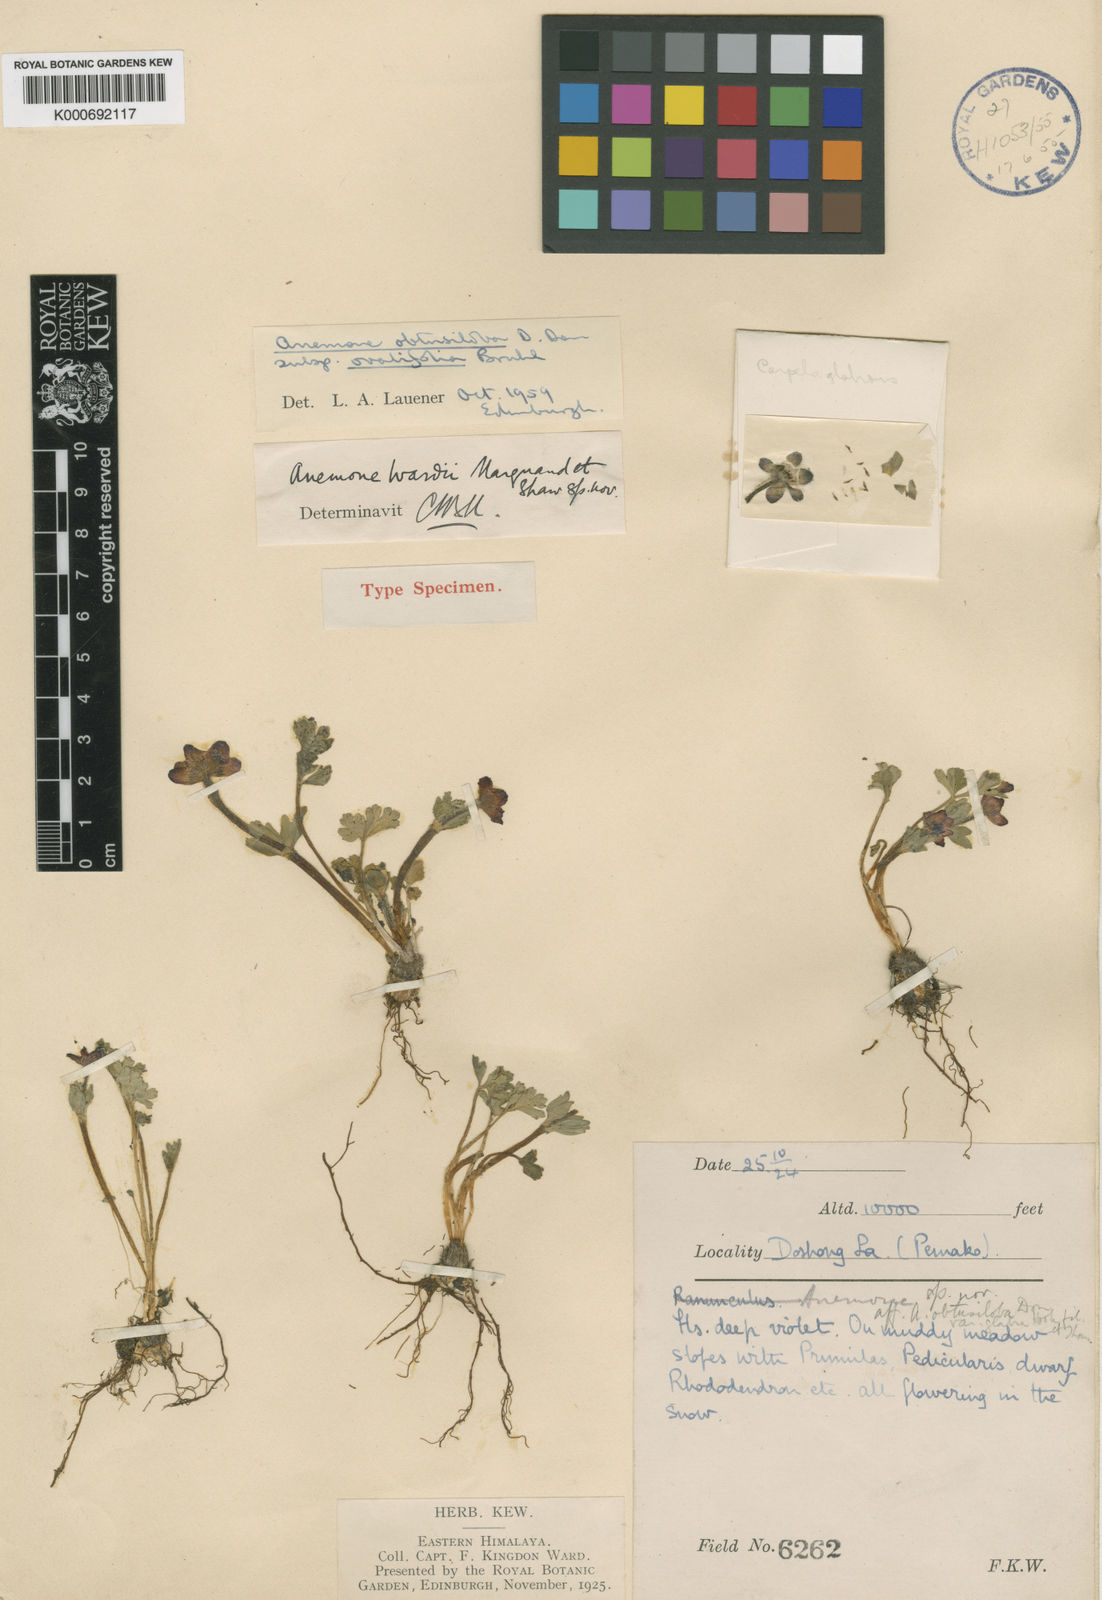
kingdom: Plantae
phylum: Tracheophyta
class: Magnoliopsida
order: Ranunculales
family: Ranunculaceae
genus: Anemonastrum
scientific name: Anemonastrum geum
